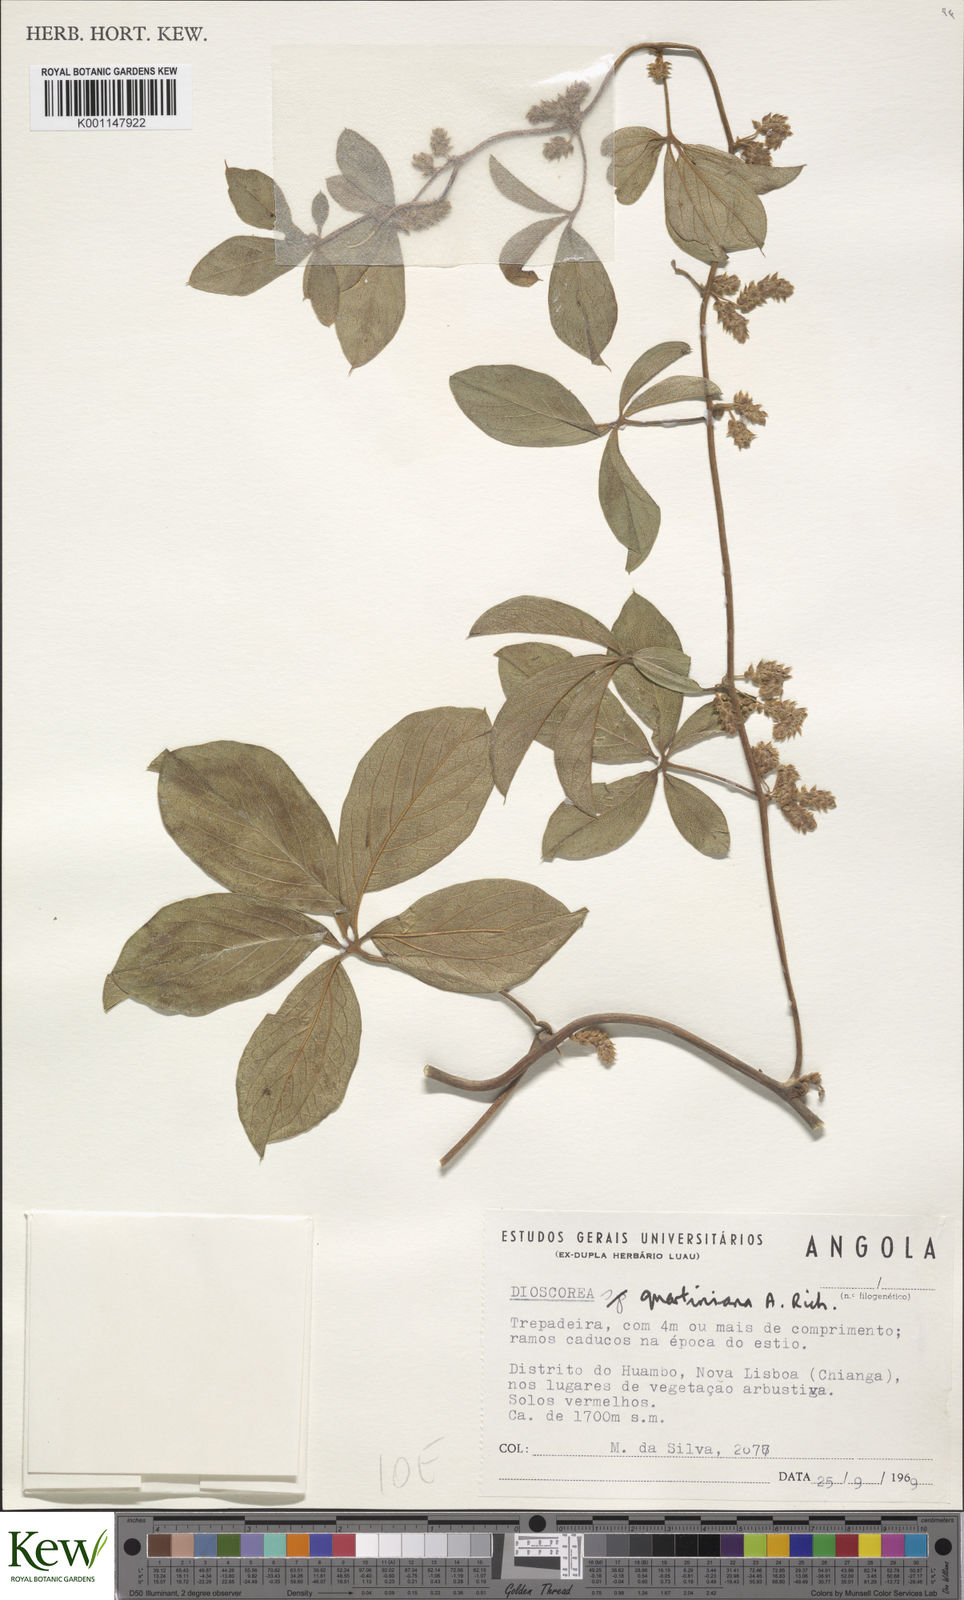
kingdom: Plantae
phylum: Tracheophyta
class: Liliopsida
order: Dioscoreales
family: Dioscoreaceae
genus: Dioscorea
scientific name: Dioscorea quartiniana
